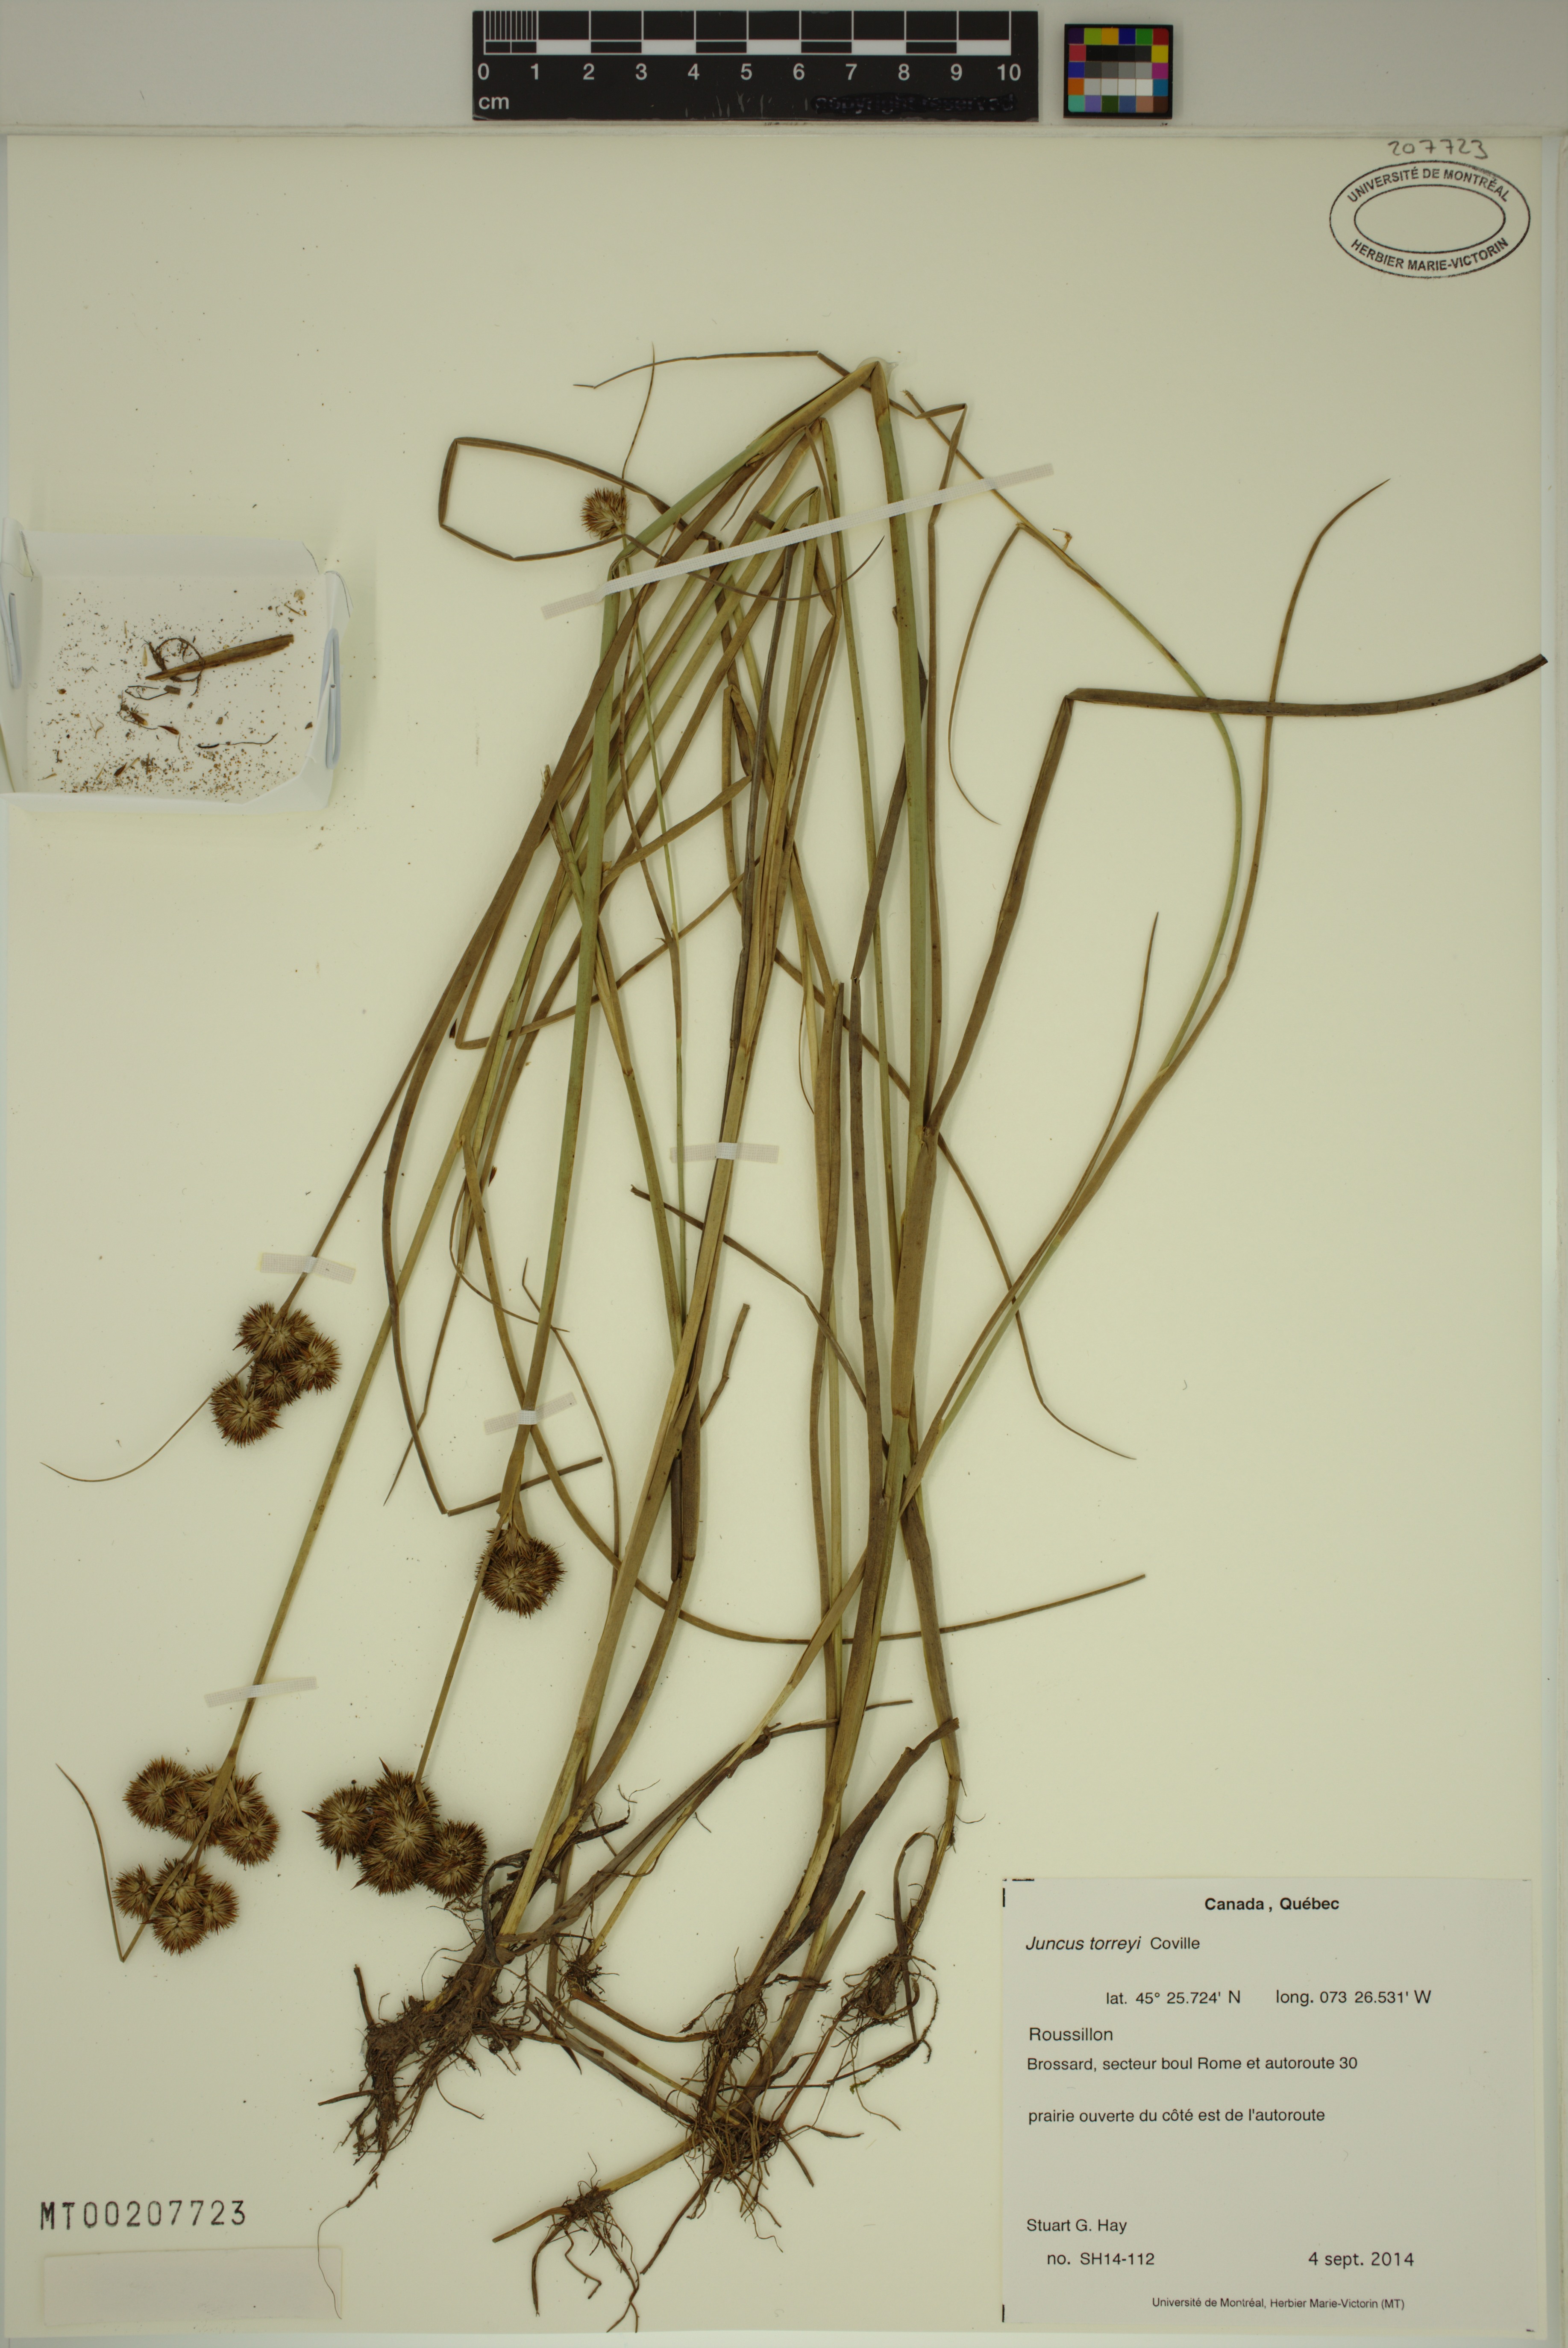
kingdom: Plantae
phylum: Tracheophyta
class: Liliopsida
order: Poales
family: Juncaceae
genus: Juncus
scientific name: Juncus torreyi
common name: Torrey's rush
